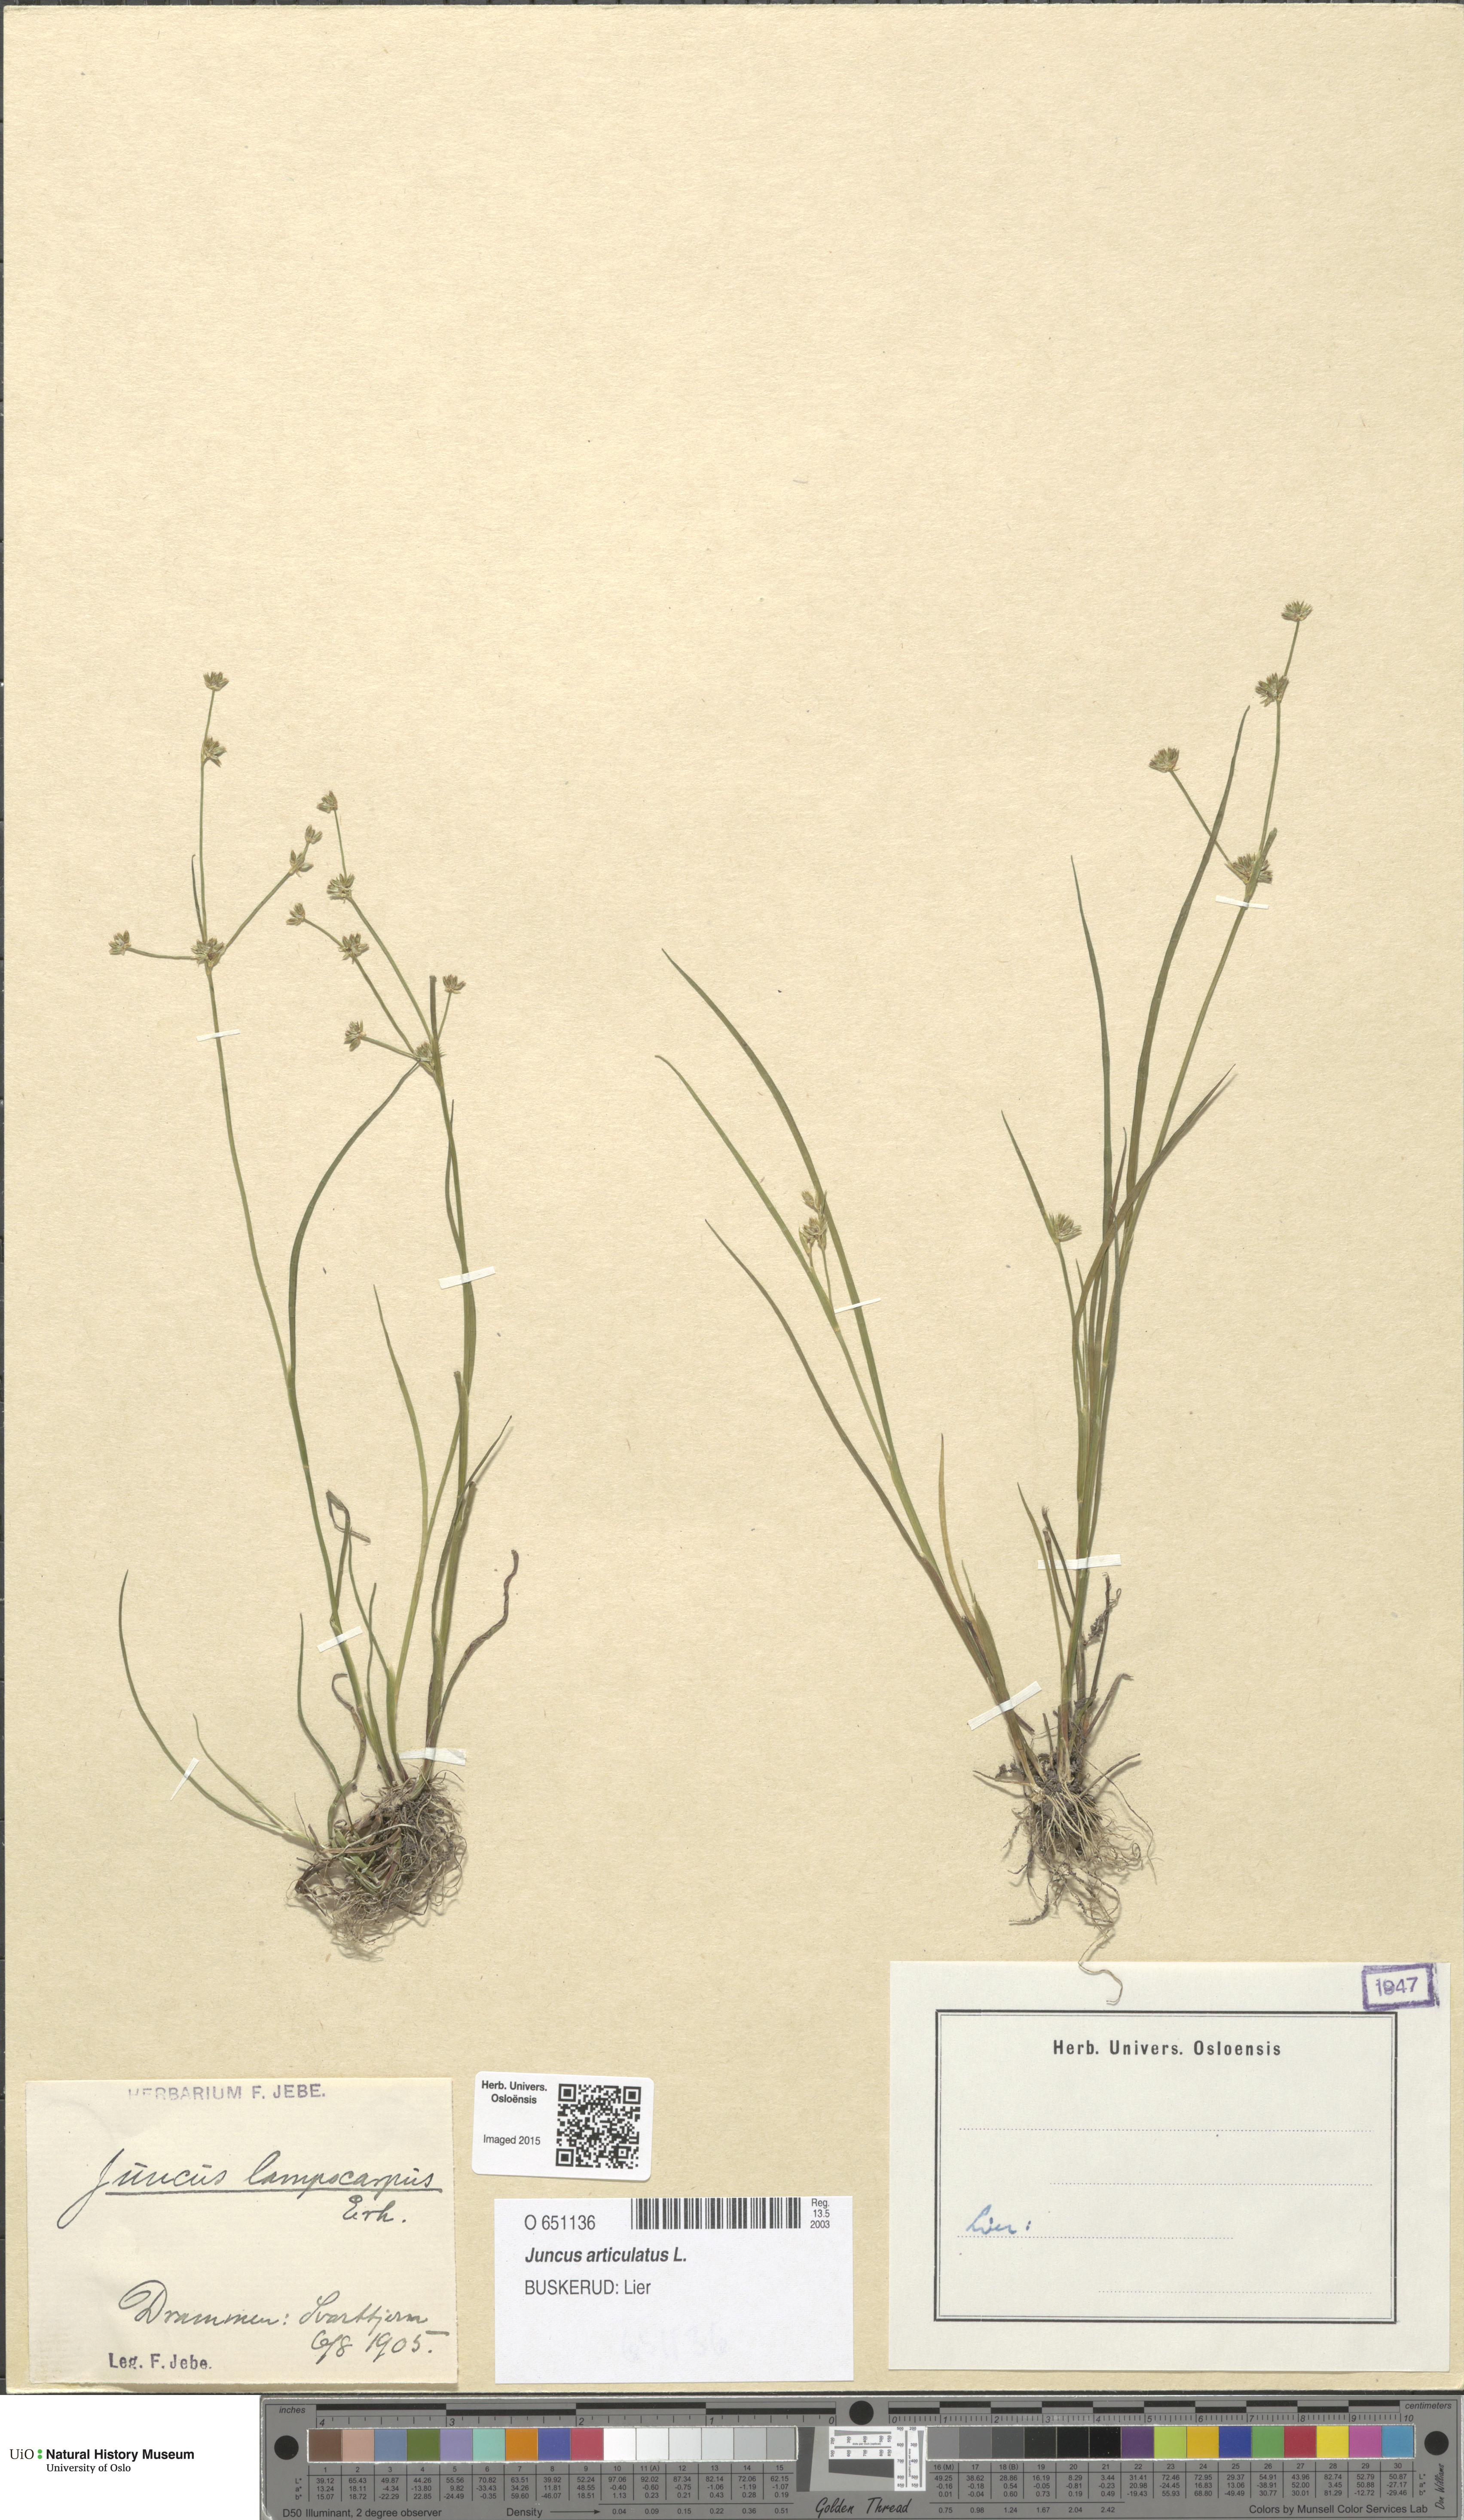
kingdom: Plantae
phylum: Tracheophyta
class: Liliopsida
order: Poales
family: Juncaceae
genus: Juncus
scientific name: Juncus articulatus
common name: Jointed rush
